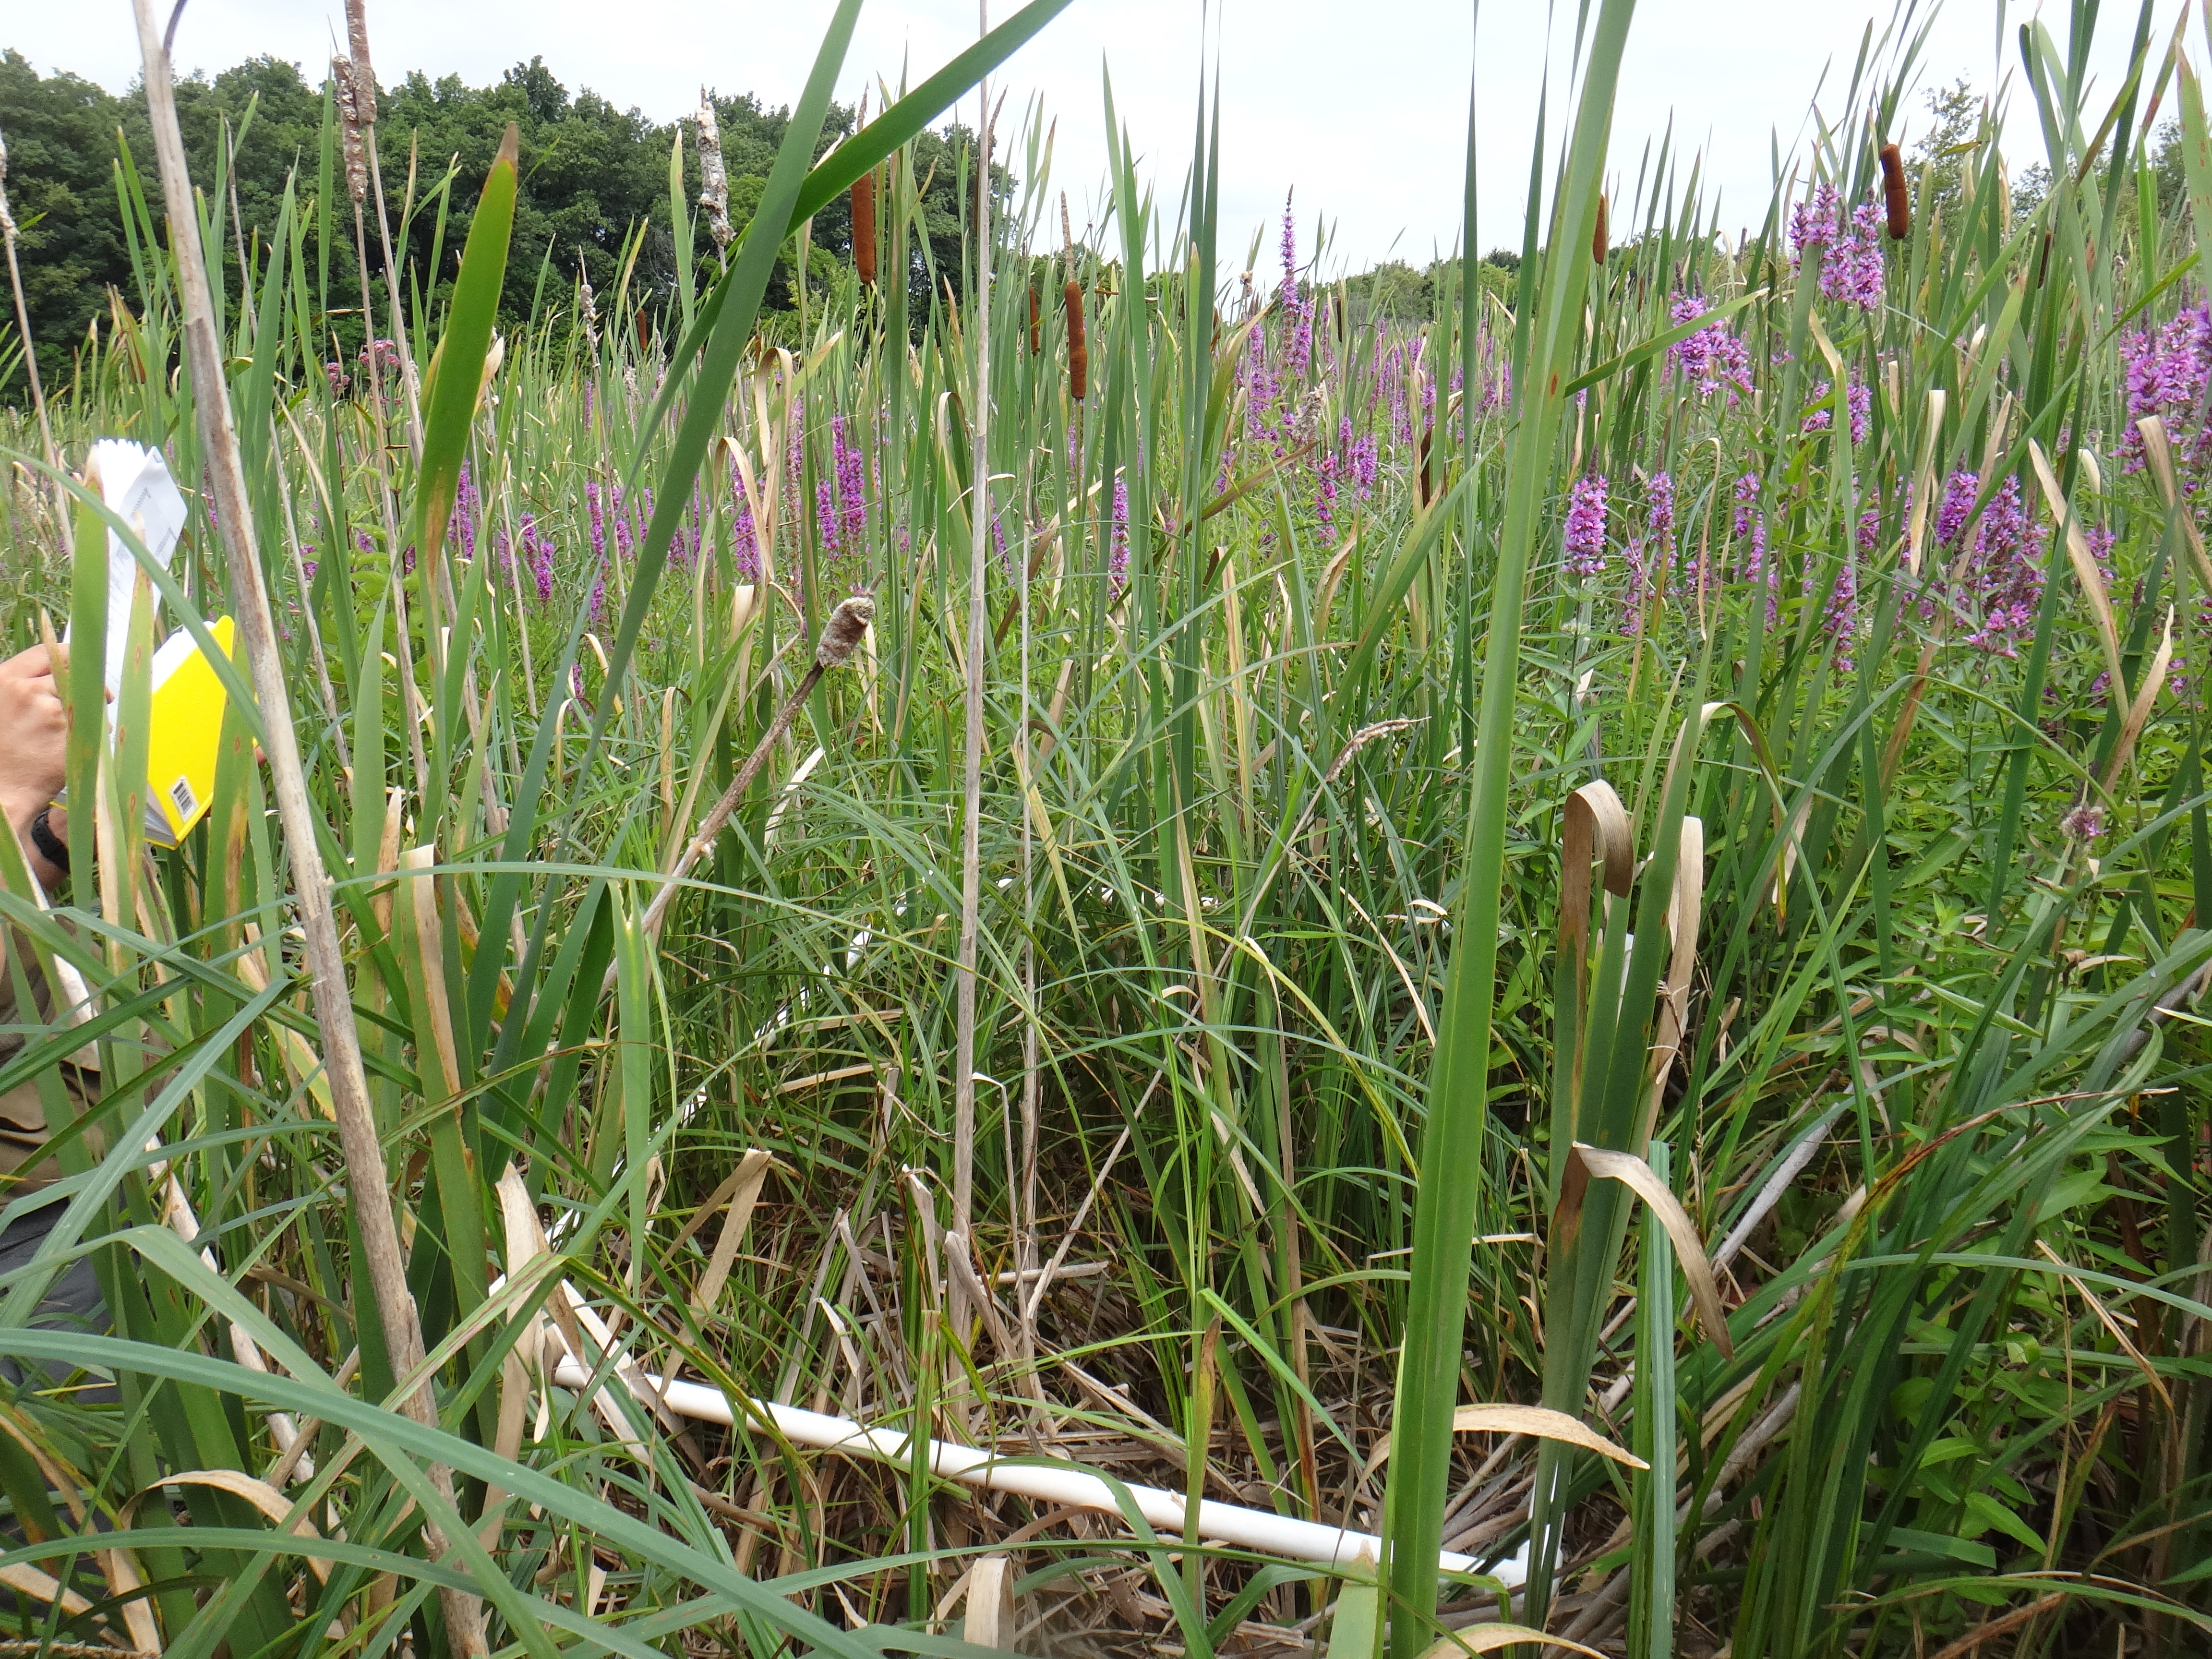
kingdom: Plantae
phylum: Tracheophyta
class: Liliopsida
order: Poales
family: Cyperaceae
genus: Carex
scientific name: Carex lacustris
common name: Common lake sedge
